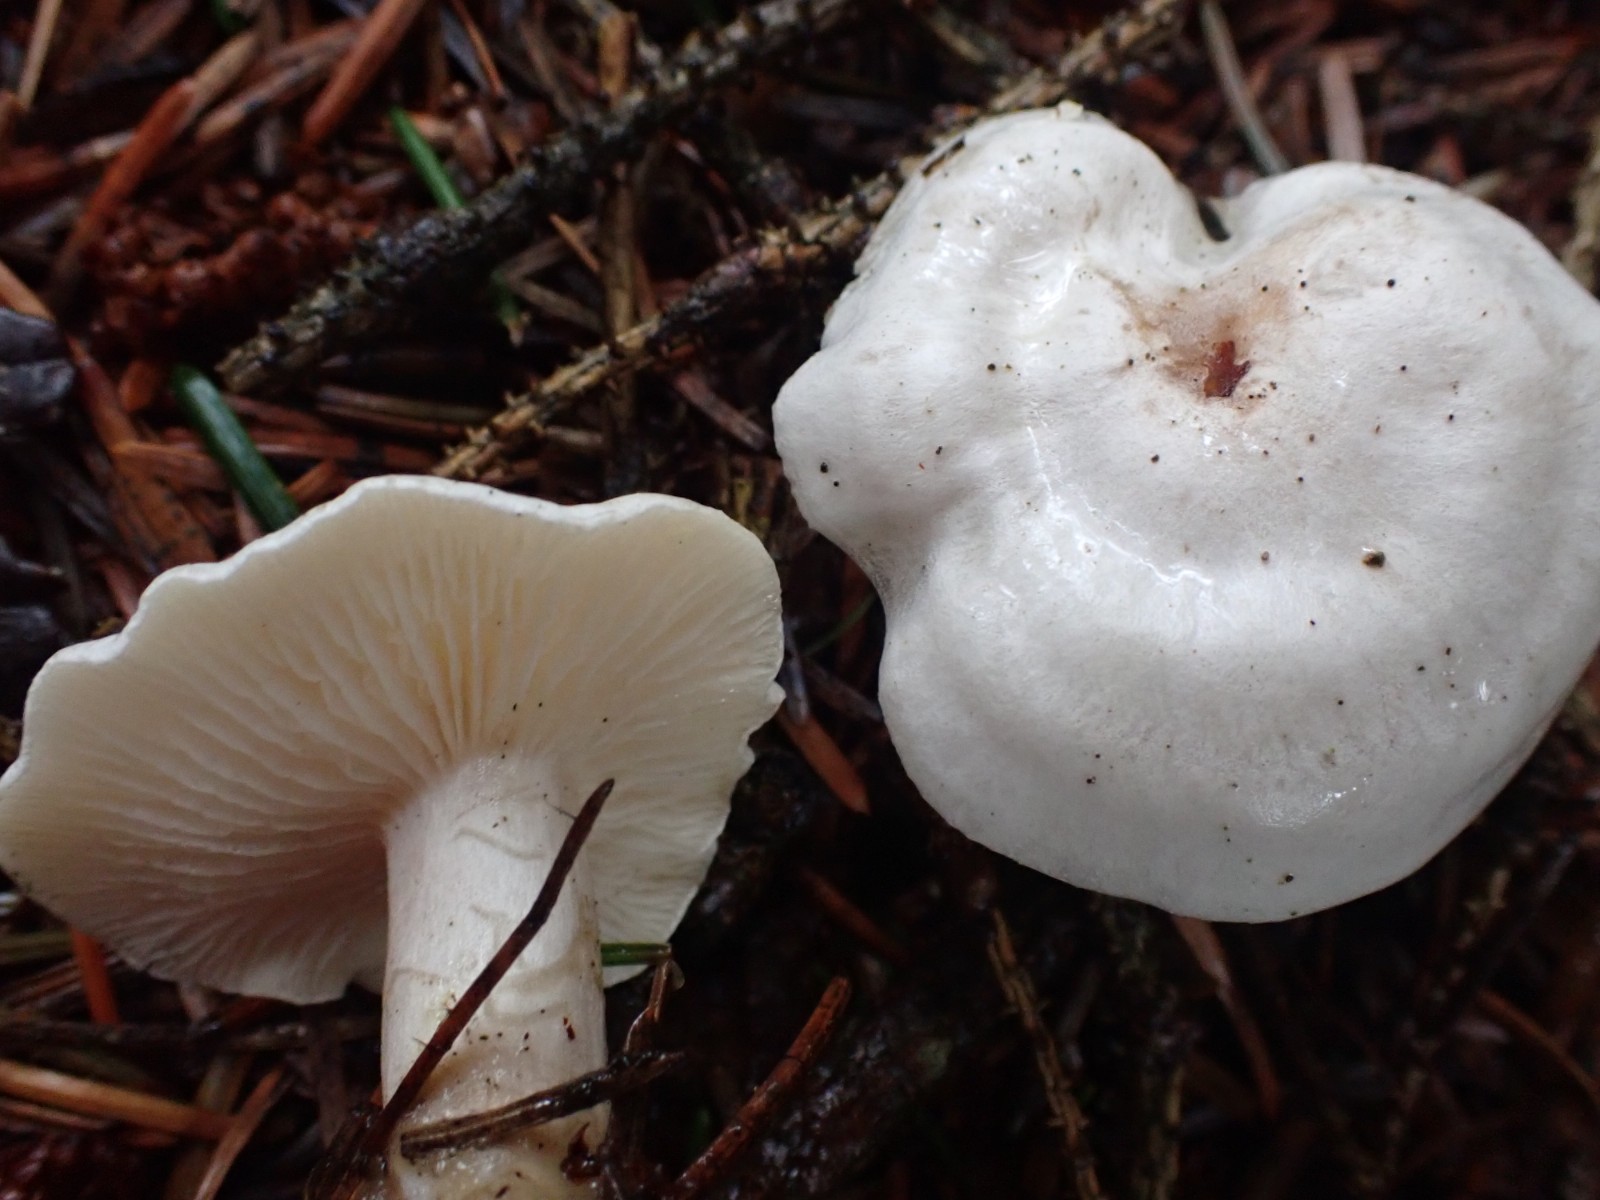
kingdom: Fungi
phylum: Basidiomycota
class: Agaricomycetes
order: Agaricales
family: Tricholomataceae
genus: Clitocybe
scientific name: Clitocybe
